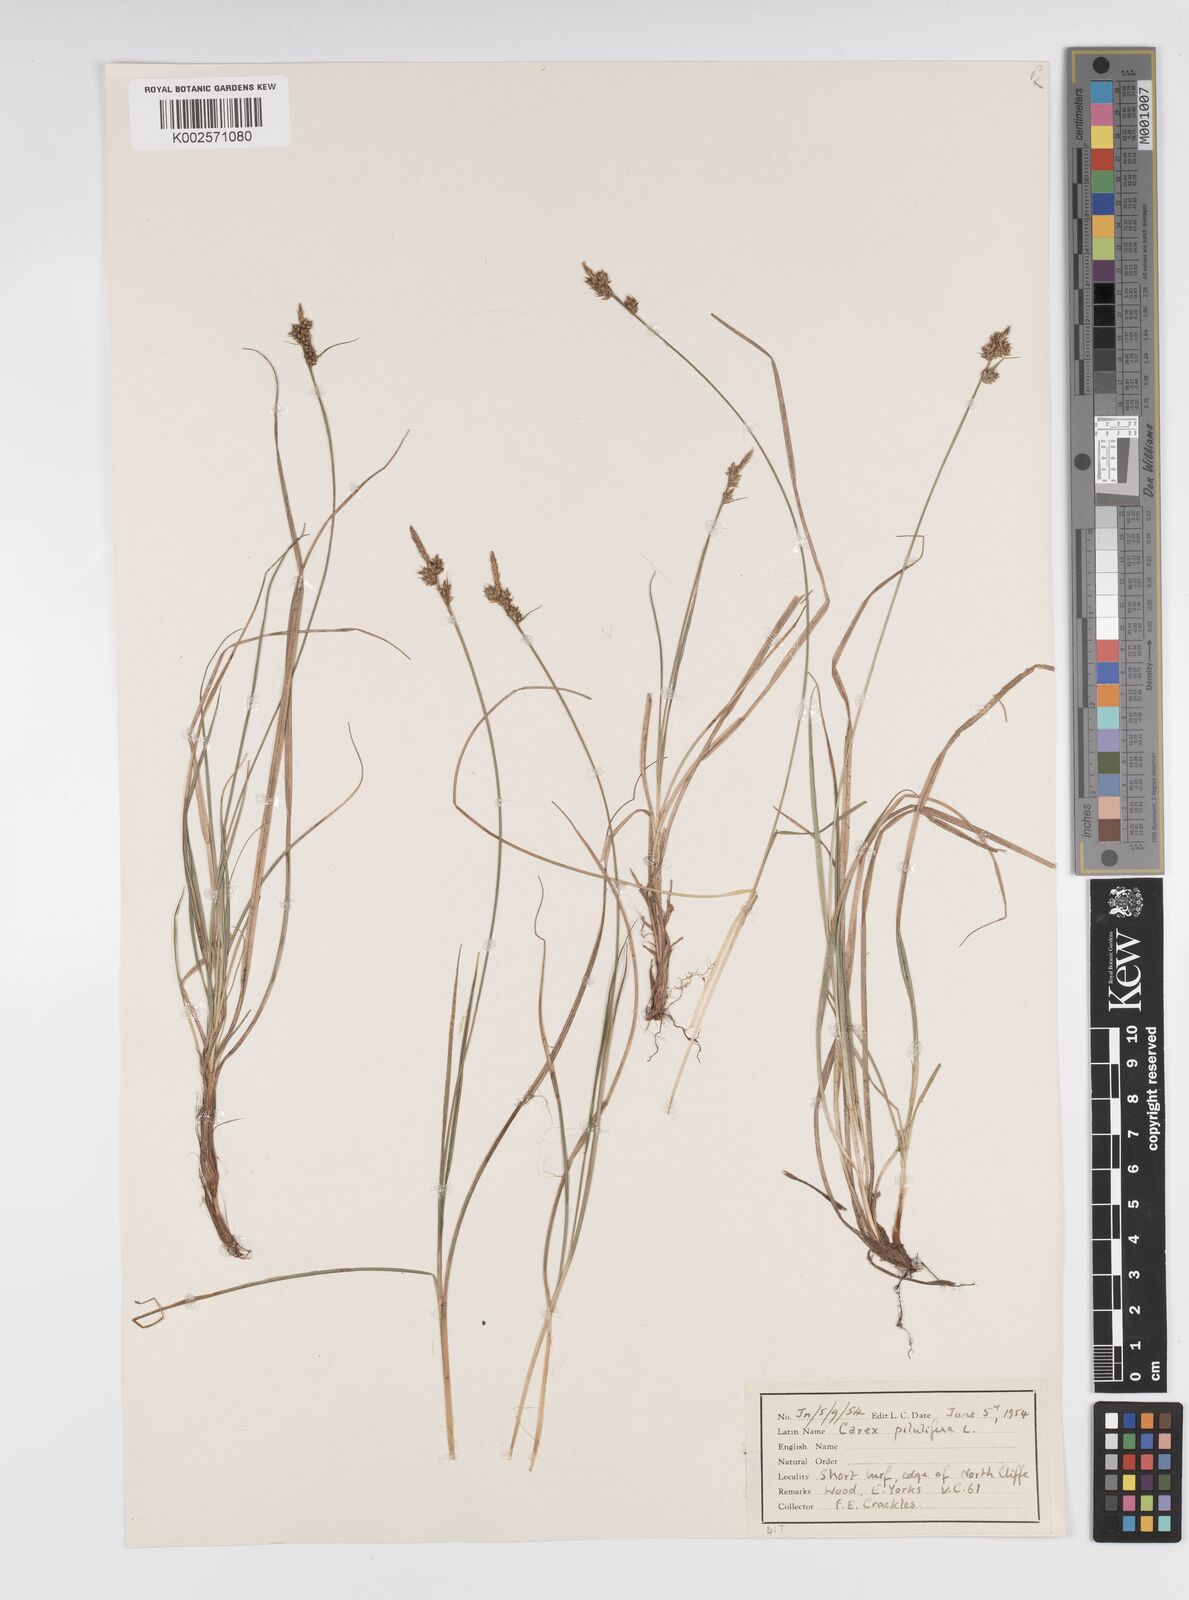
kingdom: Plantae
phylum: Tracheophyta
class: Liliopsida
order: Poales
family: Cyperaceae
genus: Carex
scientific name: Carex pilulifera
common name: Pill sedge
